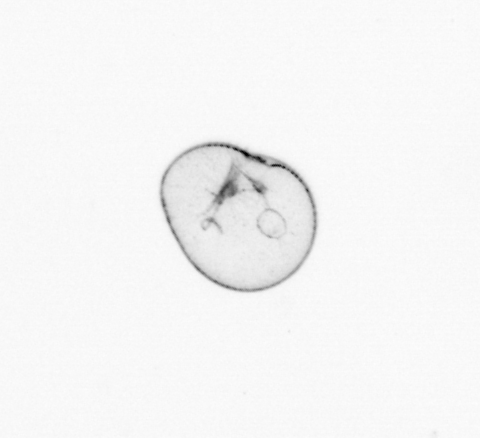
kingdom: Chromista
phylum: Myzozoa
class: Dinophyceae
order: Noctilucales
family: Noctilucaceae
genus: Noctiluca
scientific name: Noctiluca scintillans
